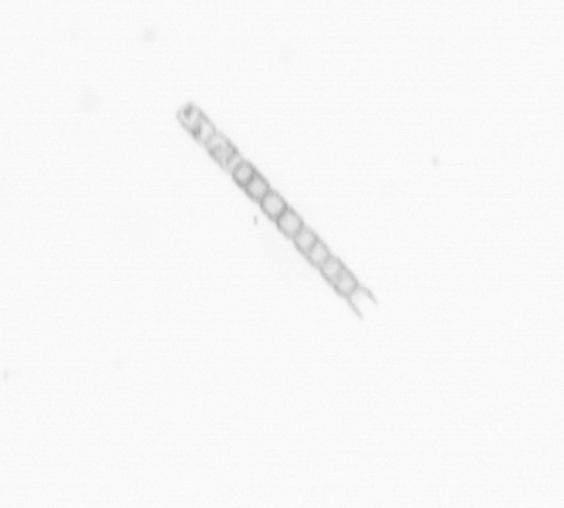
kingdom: Chromista
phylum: Ochrophyta
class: Bacillariophyceae
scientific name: Bacillariophyceae
